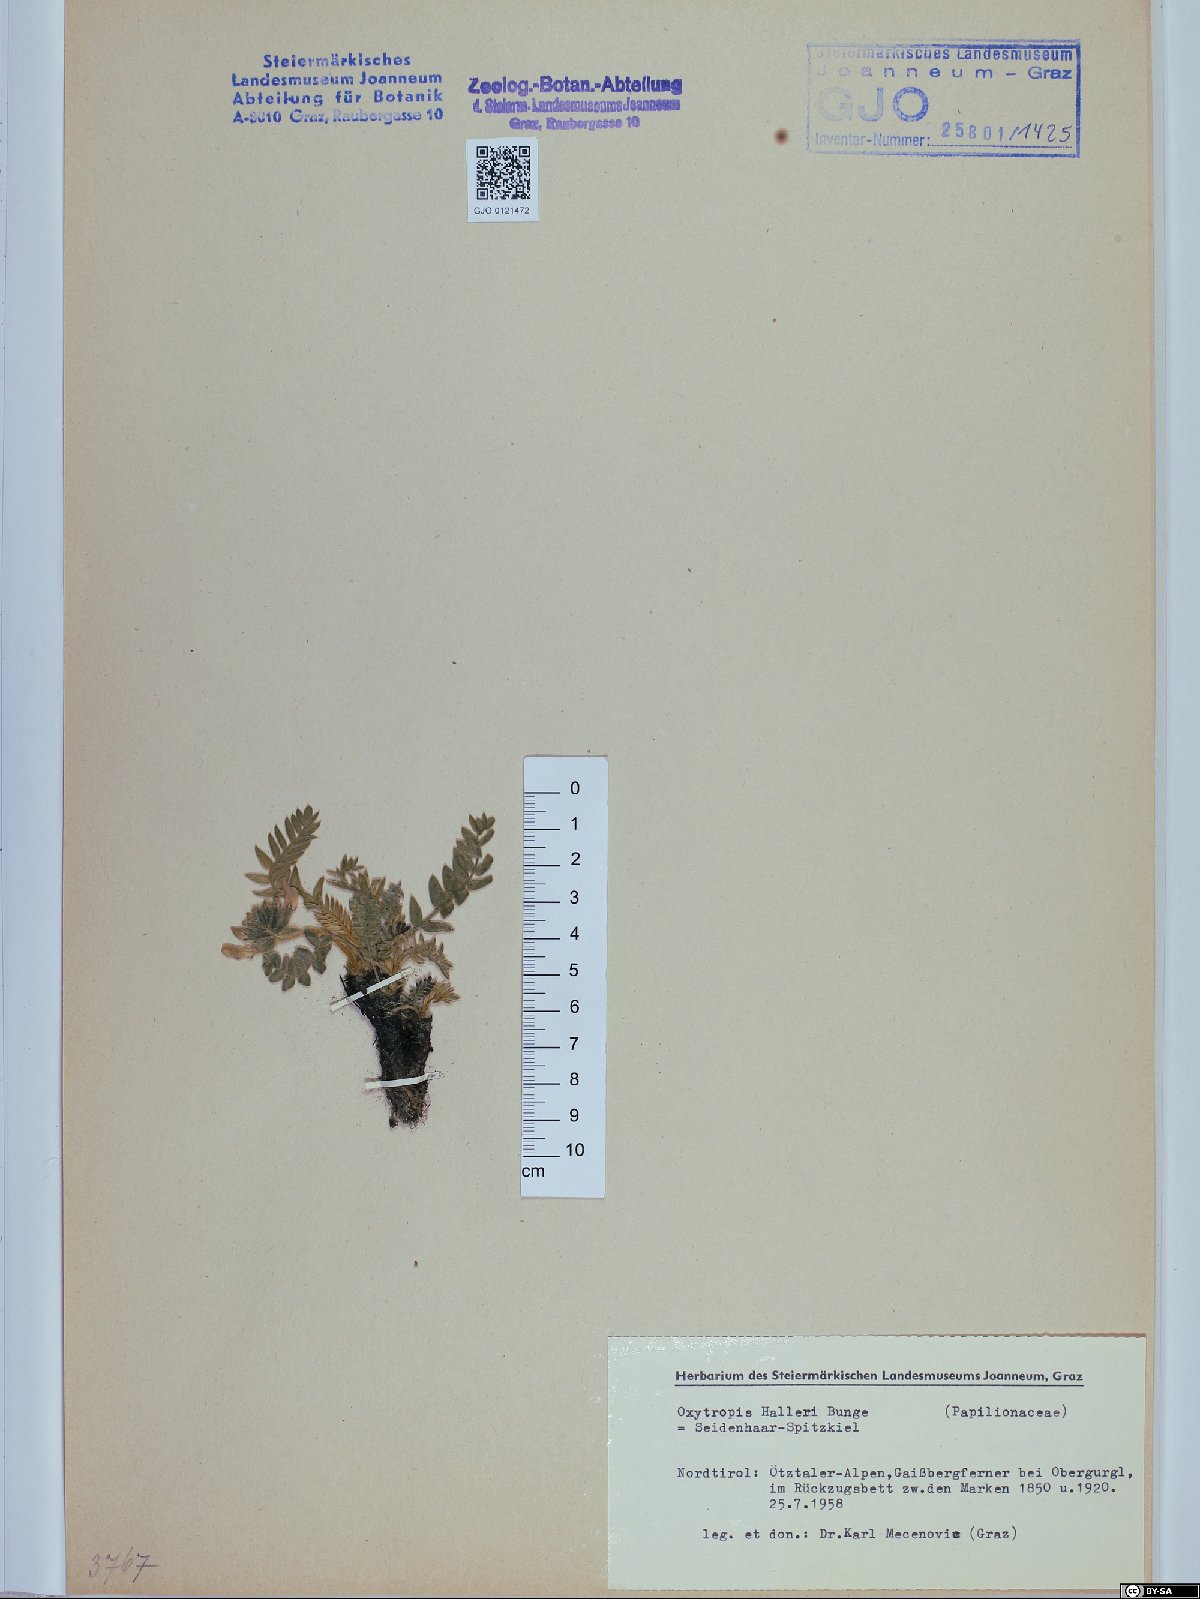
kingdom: Plantae
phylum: Tracheophyta
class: Magnoliopsida
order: Fabales
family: Fabaceae
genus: Oxytropis
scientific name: Oxytropis halleri
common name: Purple oxytropis
